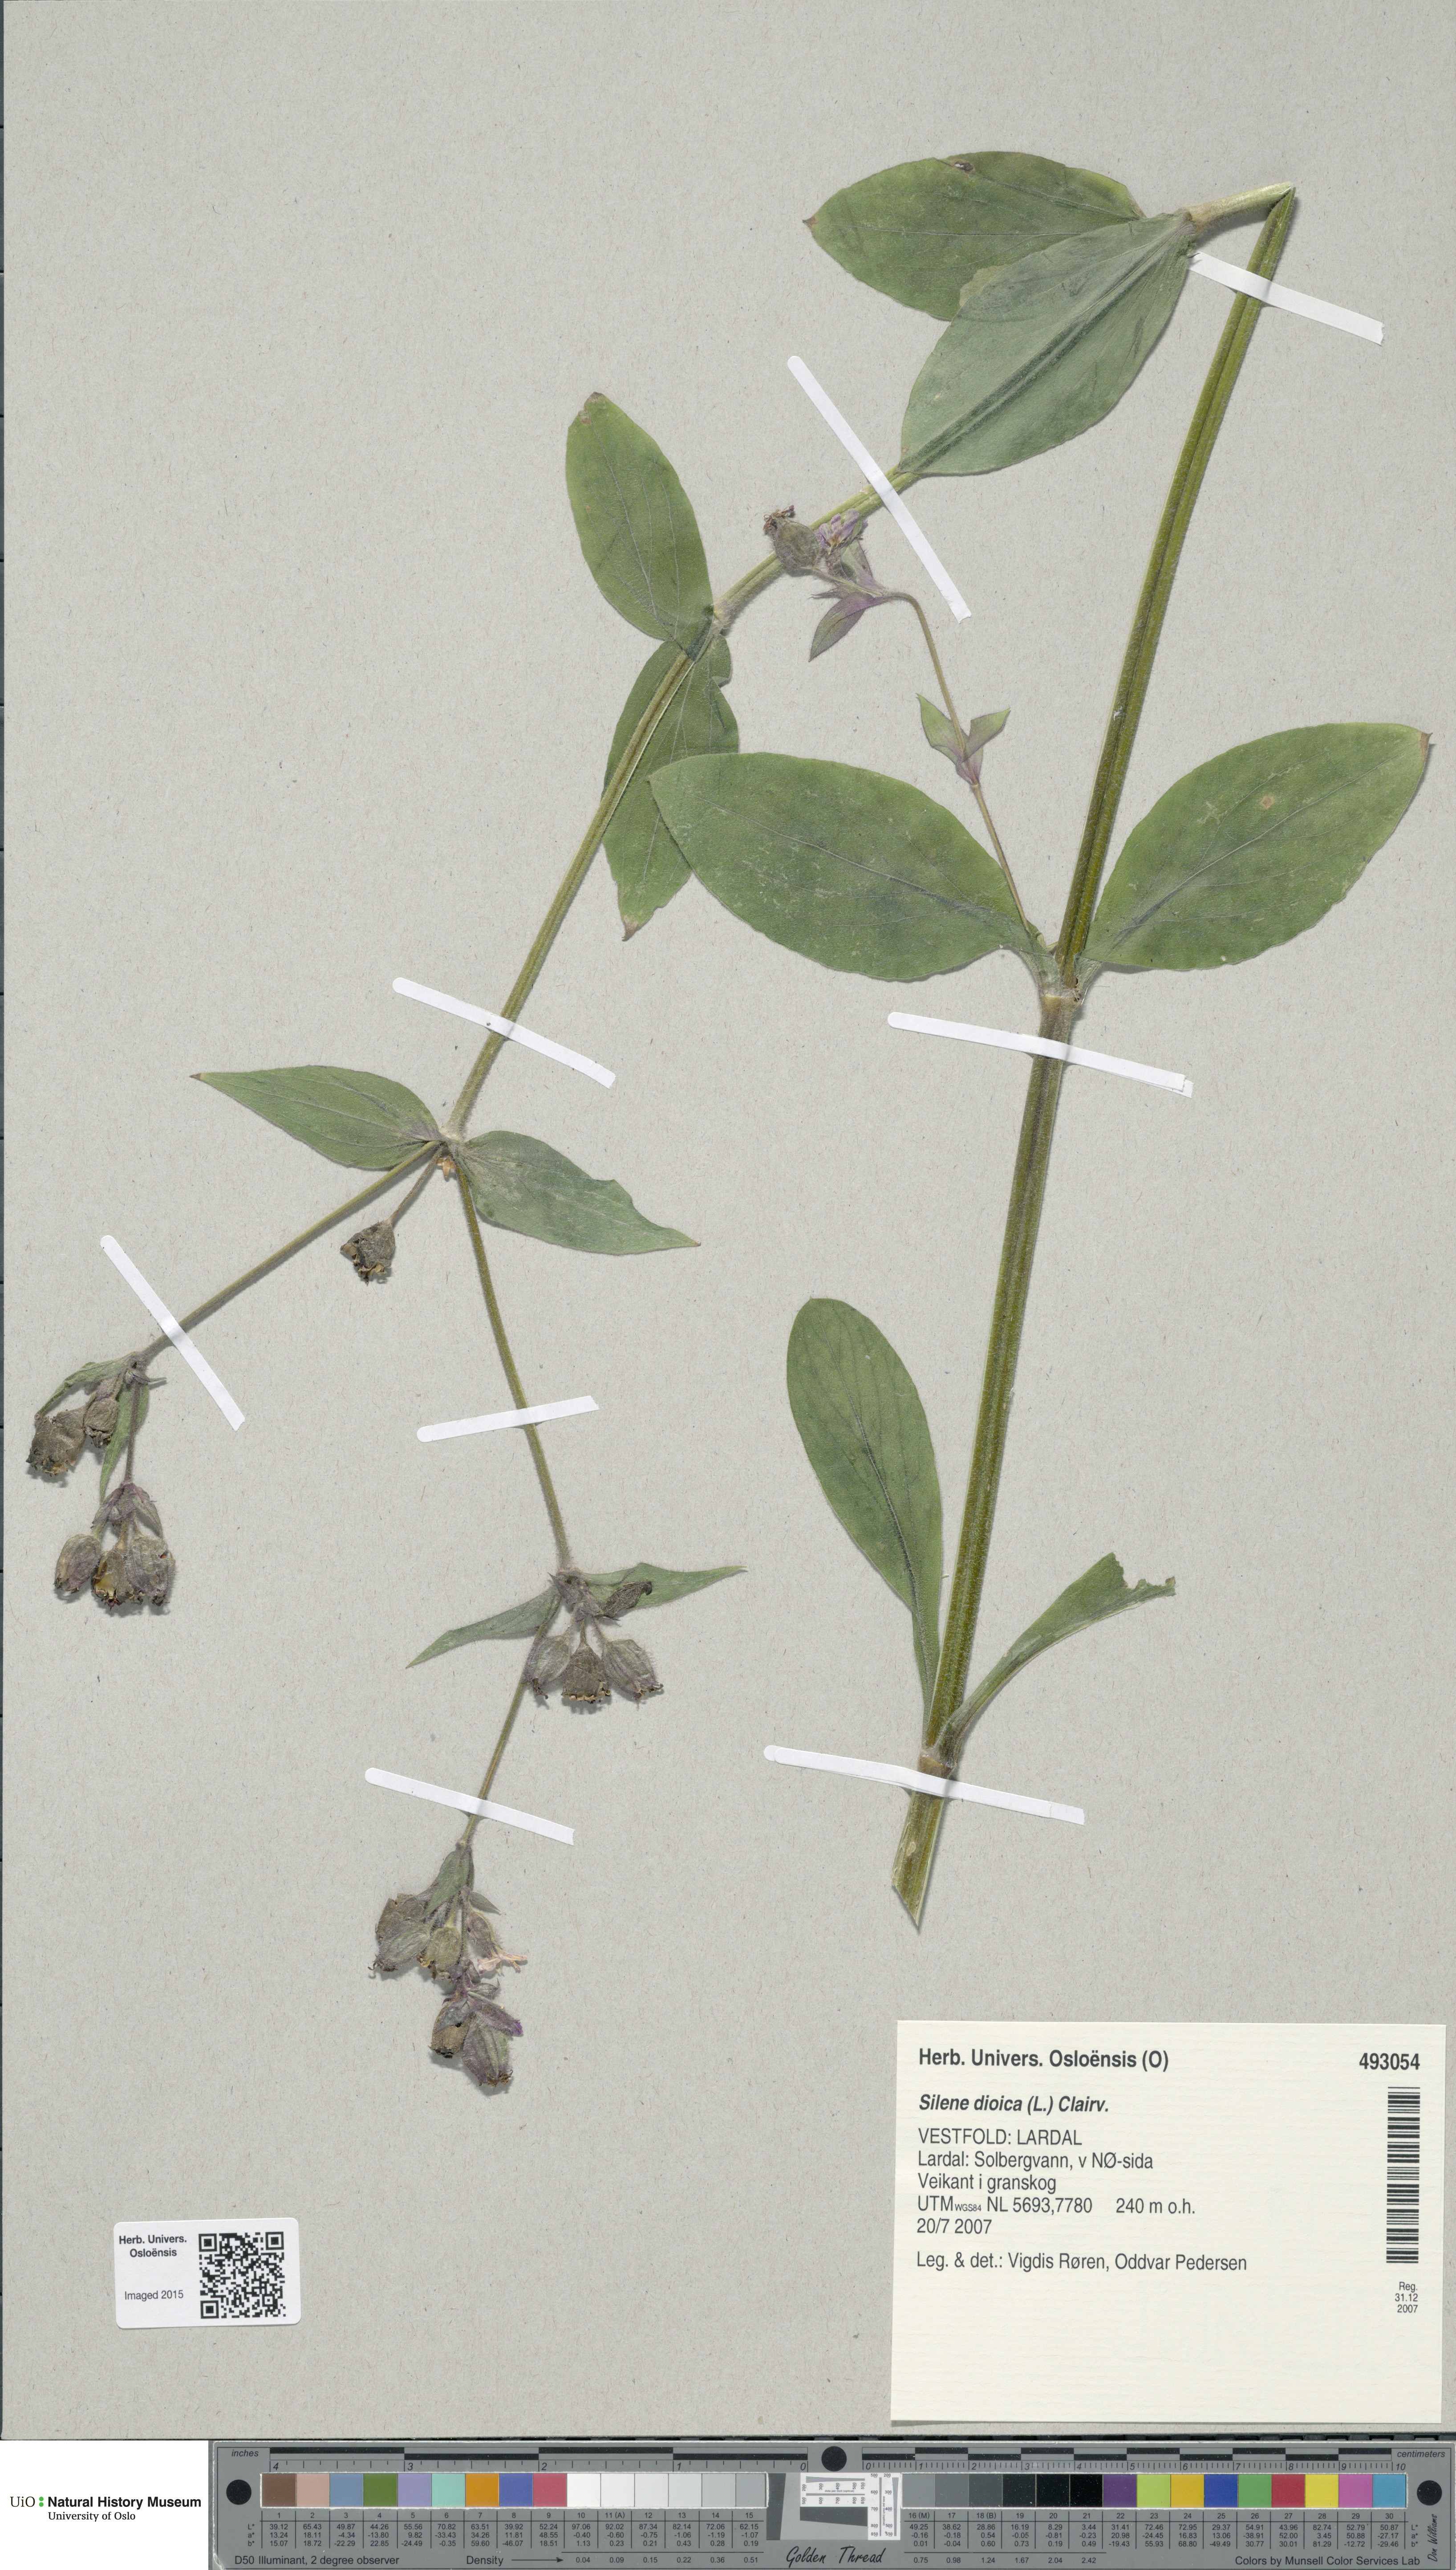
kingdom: Plantae
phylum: Tracheophyta
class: Magnoliopsida
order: Caryophyllales
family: Caryophyllaceae
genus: Silene
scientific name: Silene dioica
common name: Red campion
